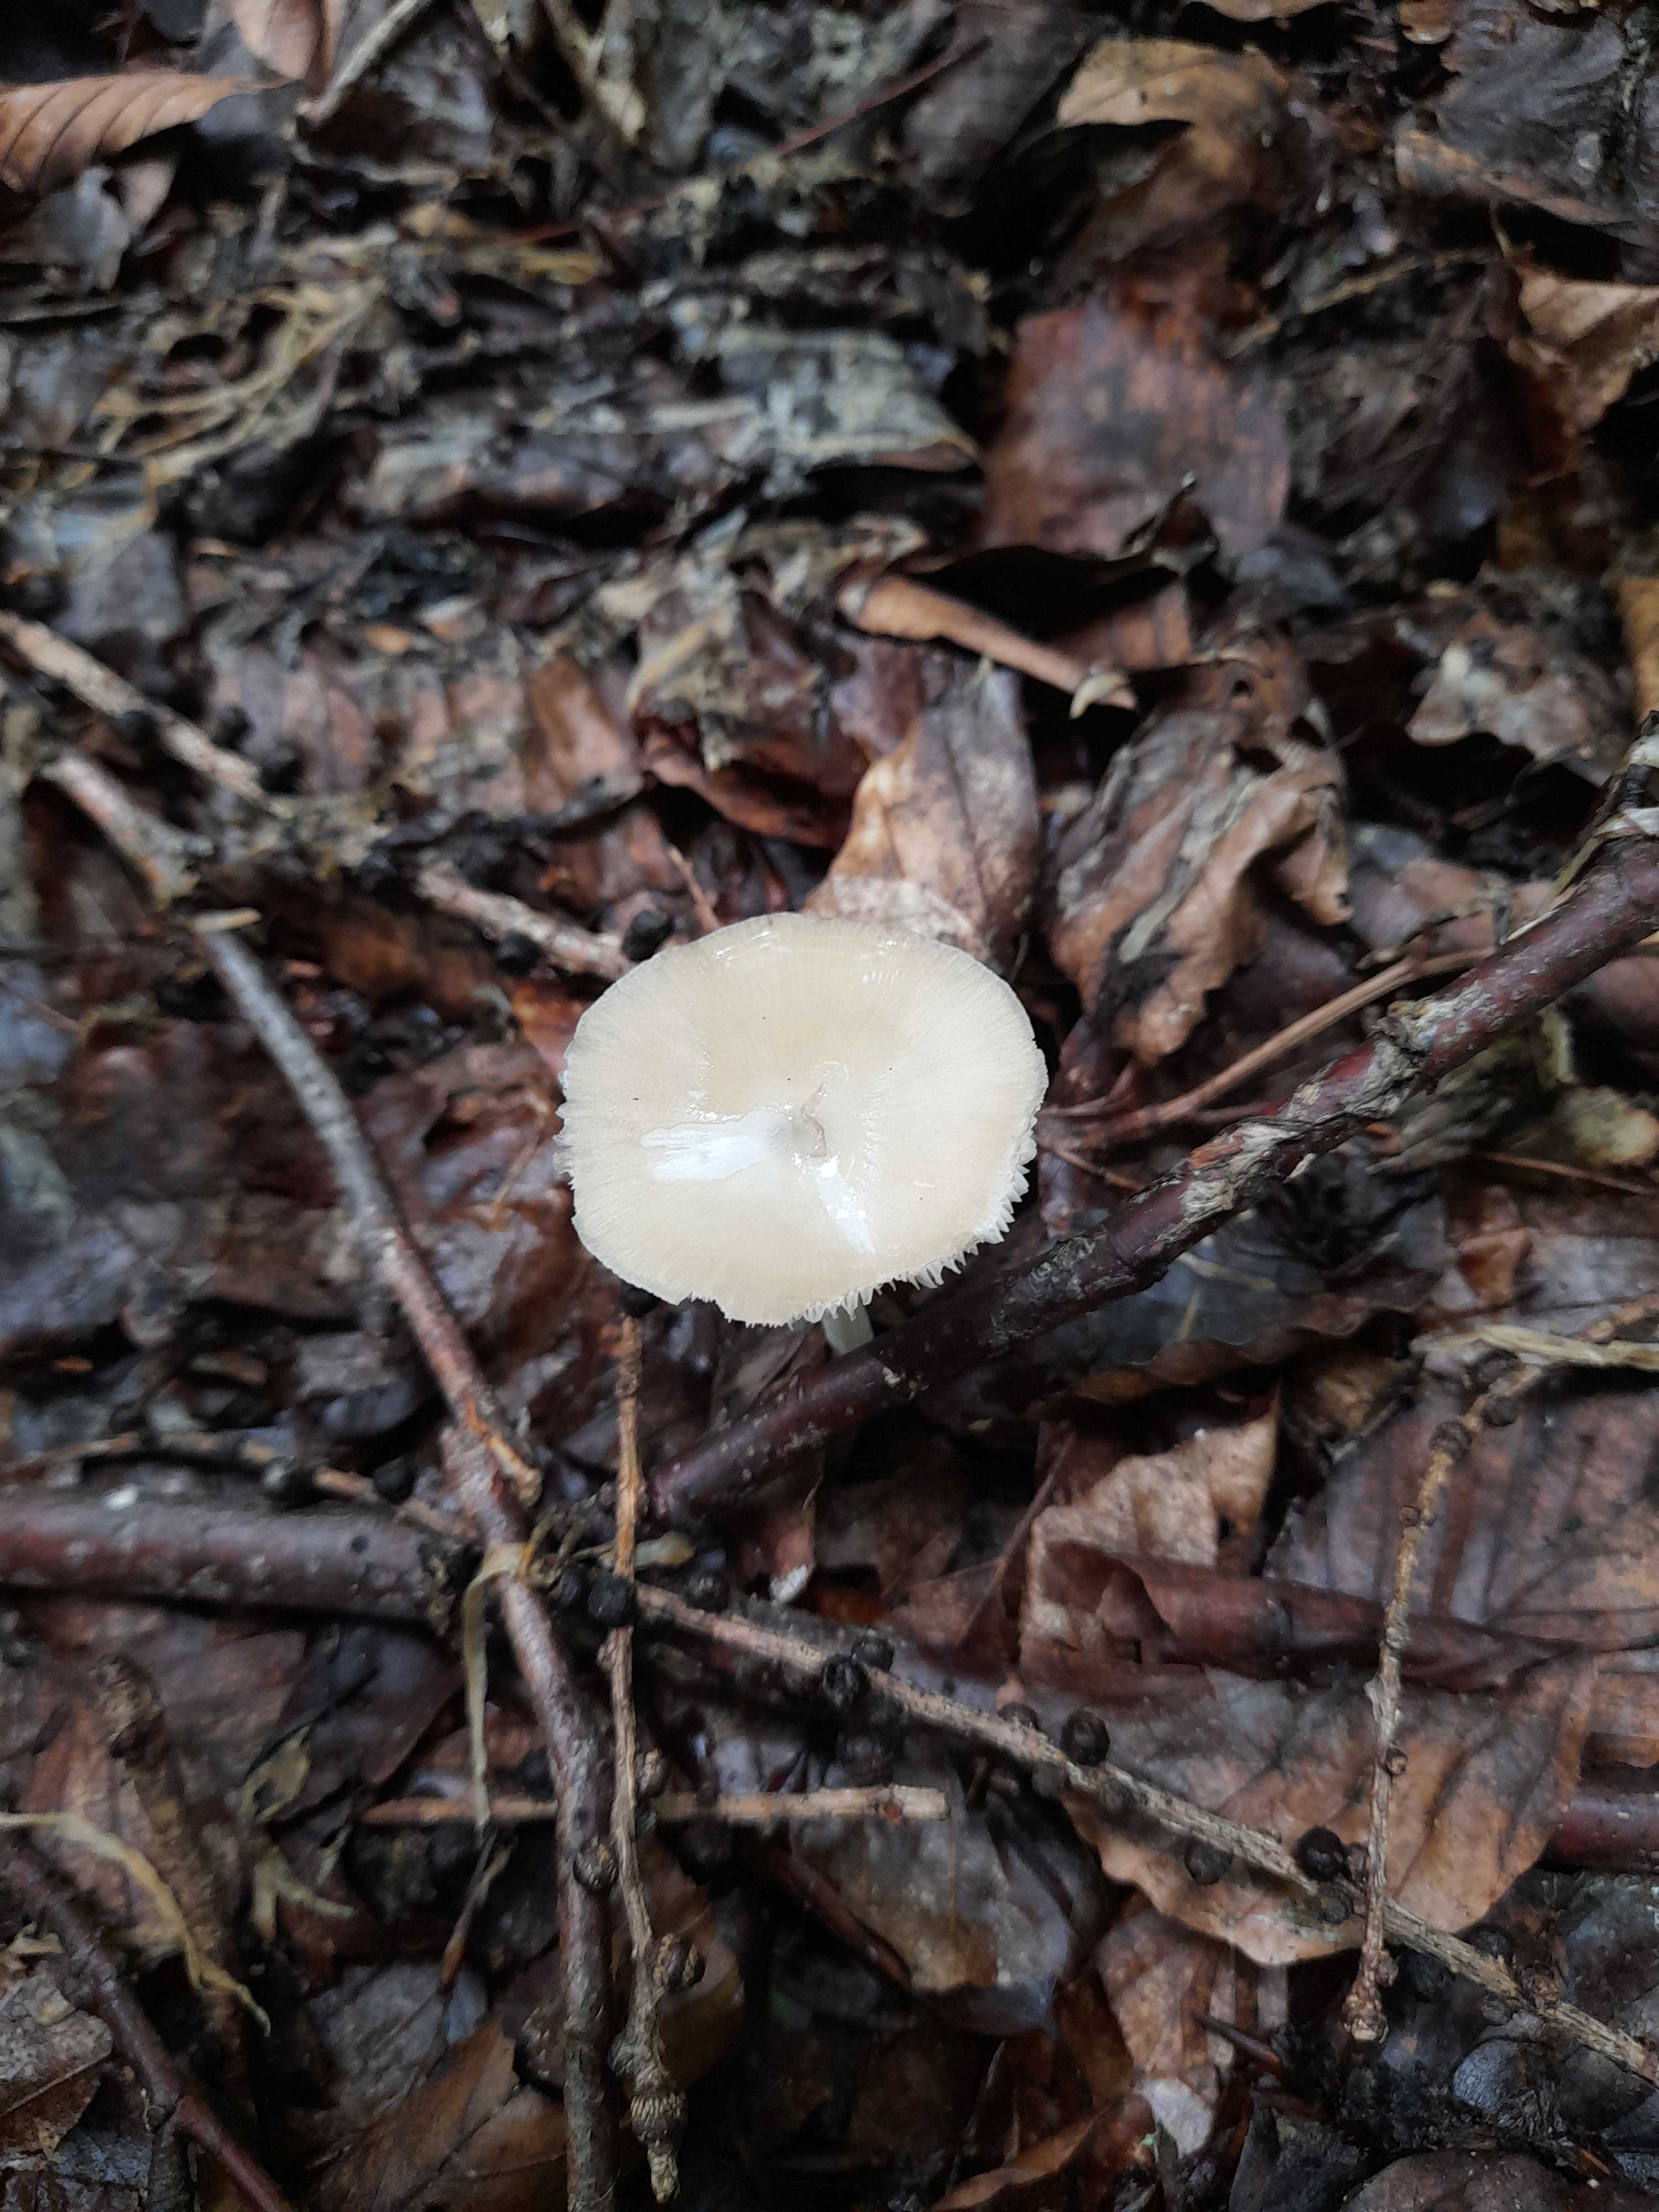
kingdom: Fungi
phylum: Basidiomycota
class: Agaricomycetes
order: Agaricales
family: Porotheleaceae
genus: Hydropodia
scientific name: Hydropodia subalpina
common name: vår-fnugfod
